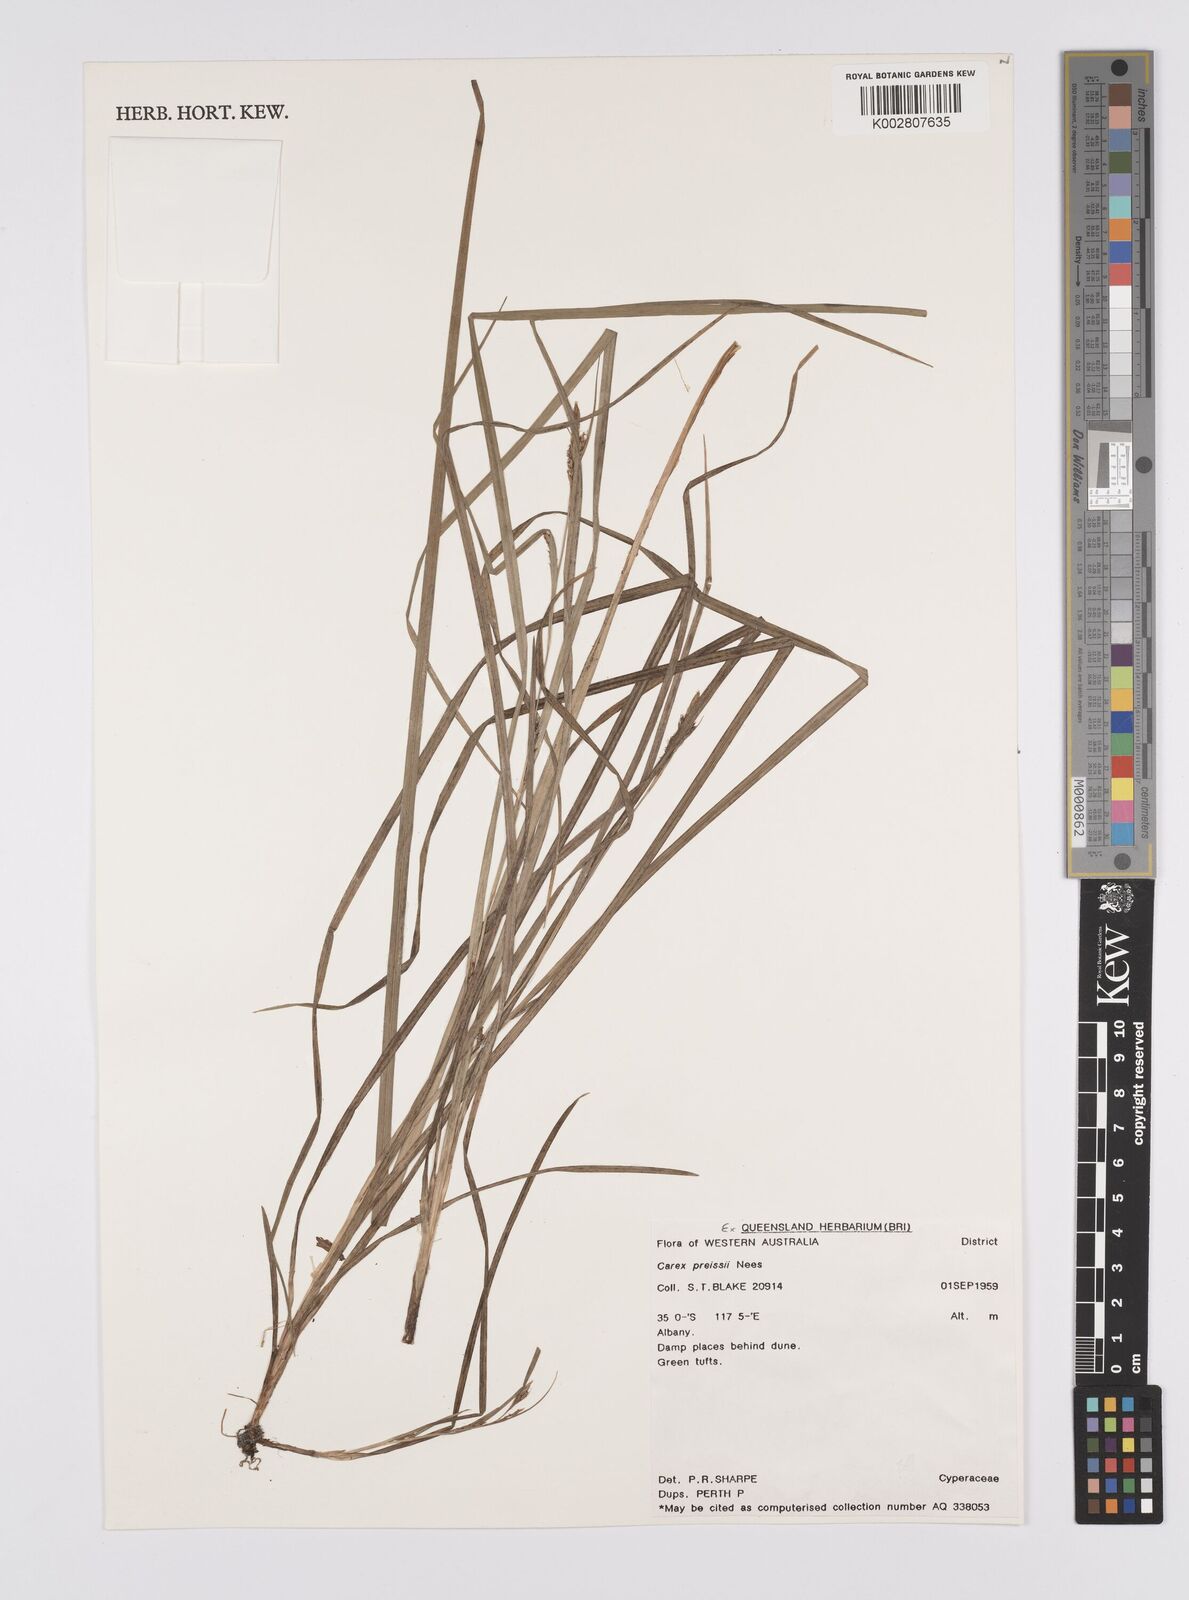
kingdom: Plantae
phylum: Tracheophyta
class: Liliopsida
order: Poales
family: Cyperaceae
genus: Carex
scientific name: Carex preissii
